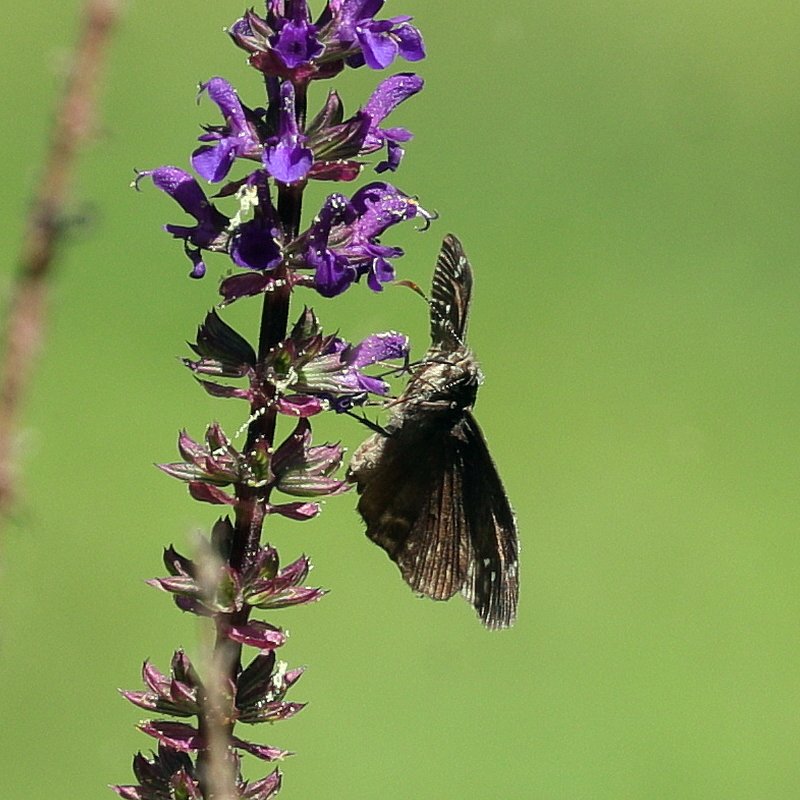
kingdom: Animalia
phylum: Arthropoda
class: Insecta
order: Lepidoptera
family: Hesperiidae
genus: Gesta
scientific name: Gesta
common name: Wild Indigo Duskywing
